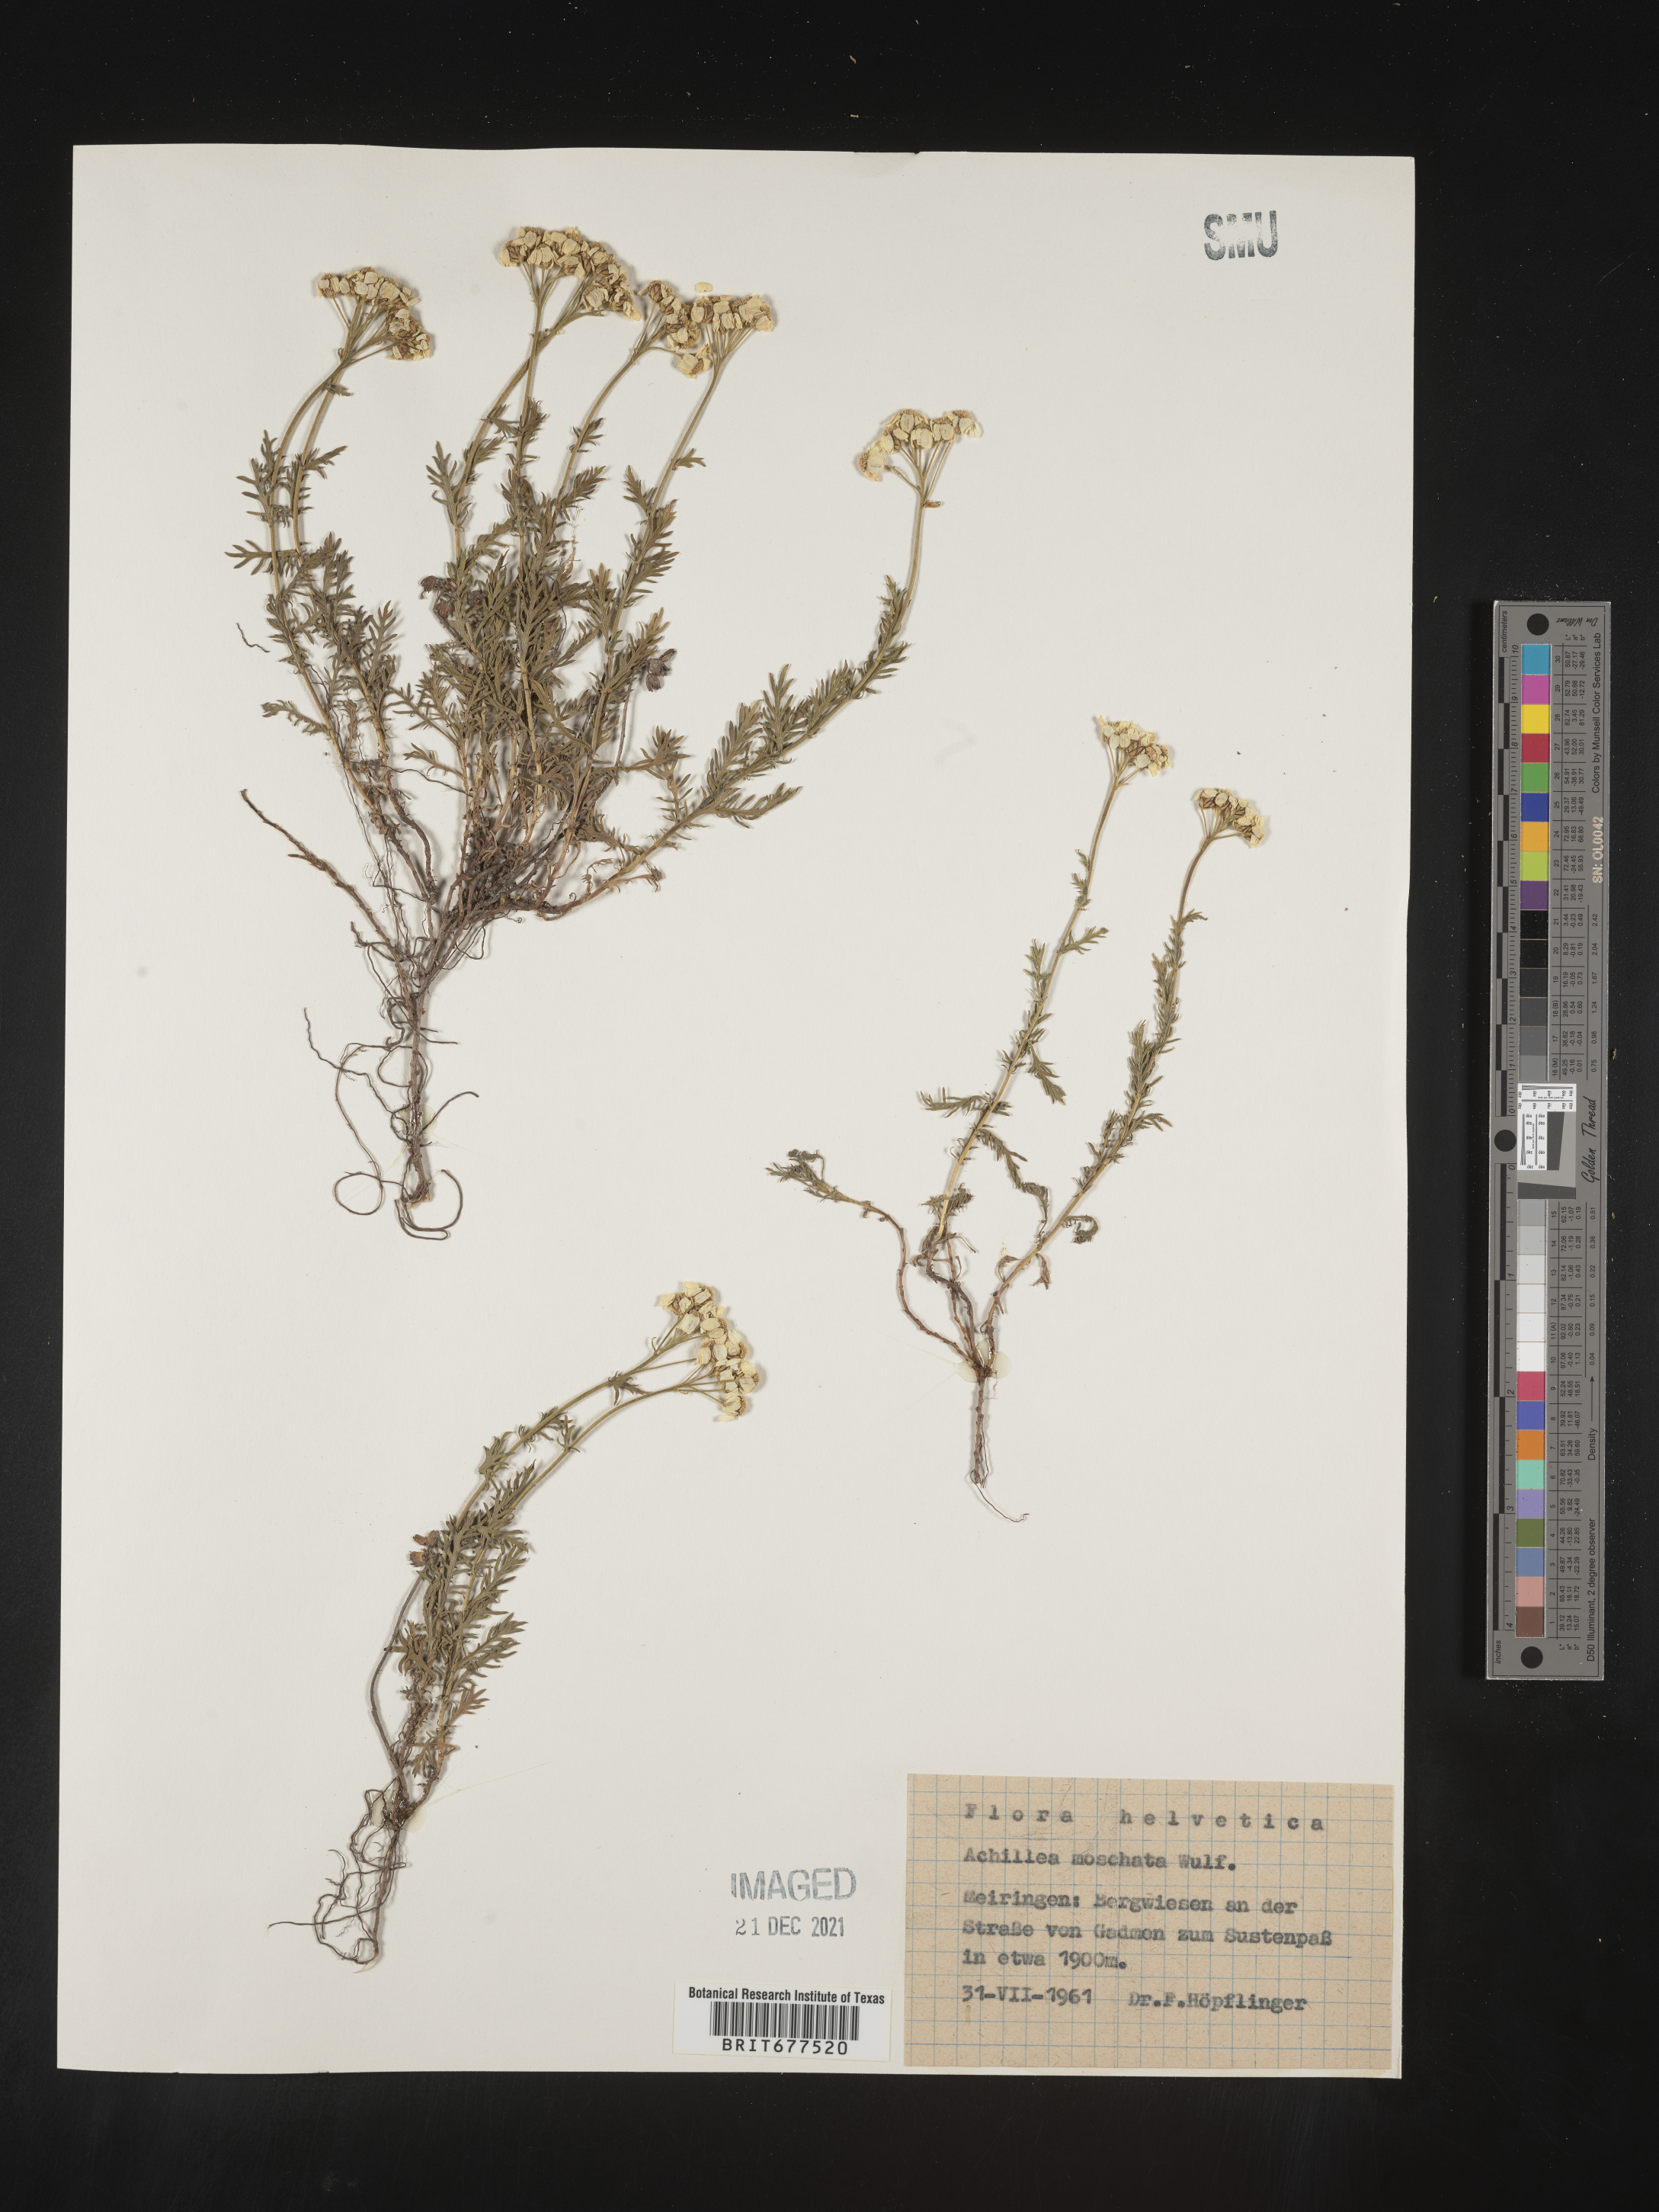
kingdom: Plantae
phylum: Tracheophyta
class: Magnoliopsida
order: Asterales
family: Asteraceae
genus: Achillea
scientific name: Achillea
